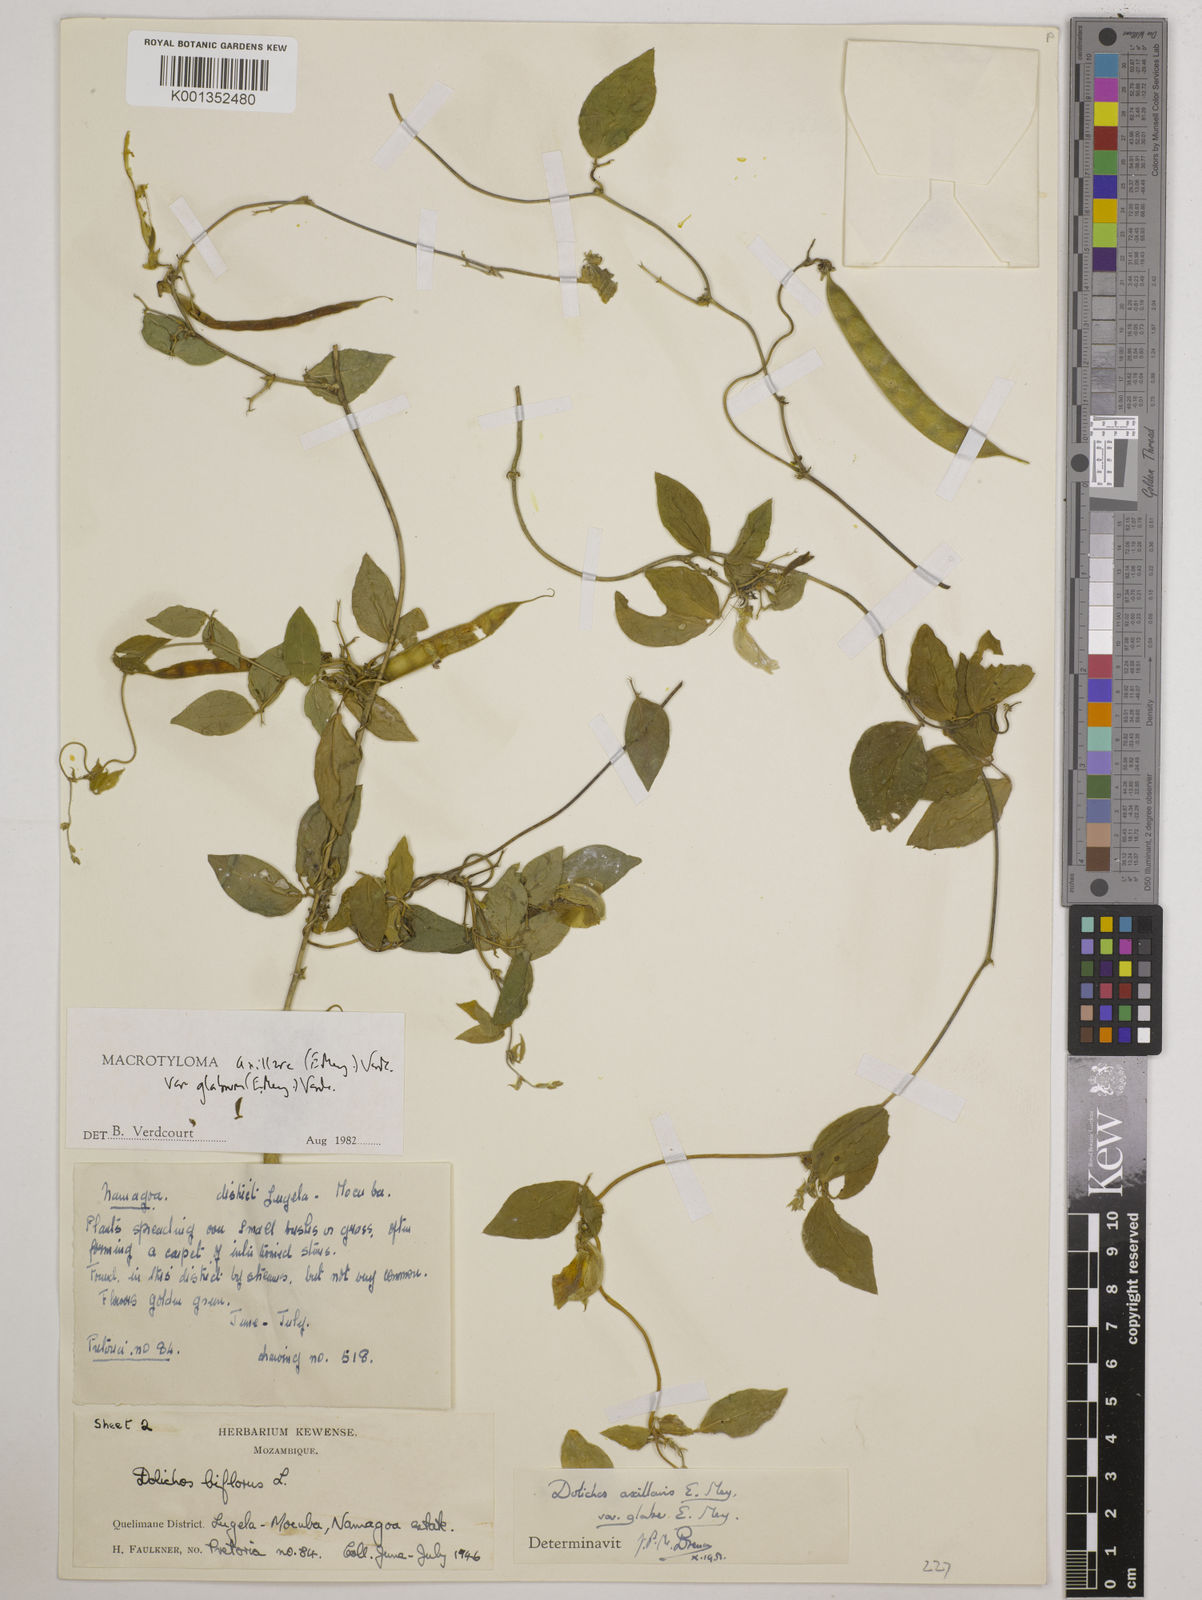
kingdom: Plantae
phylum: Tracheophyta
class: Magnoliopsida
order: Fabales
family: Fabaceae
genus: Macrotyloma
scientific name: Macrotyloma
